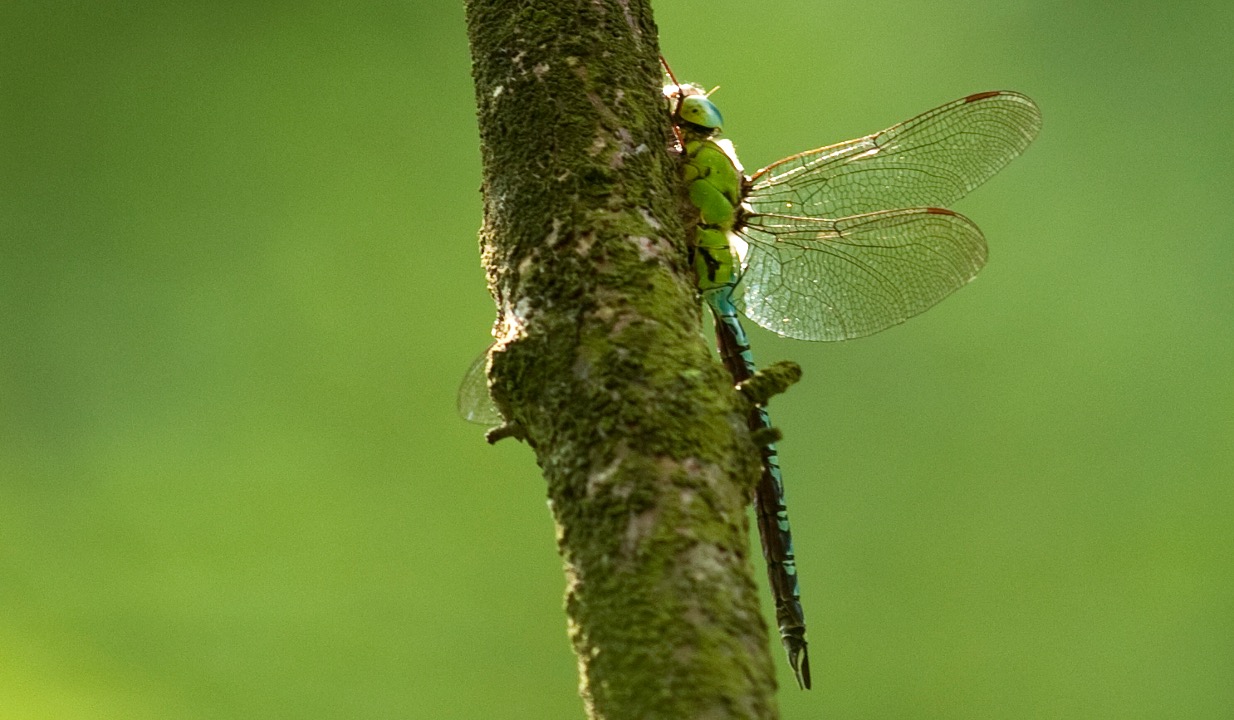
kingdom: Animalia
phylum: Arthropoda
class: Insecta
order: Odonata
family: Aeshnidae
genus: Aeshna
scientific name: Aeshna viridis
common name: Grøn mosaikguldsmed
